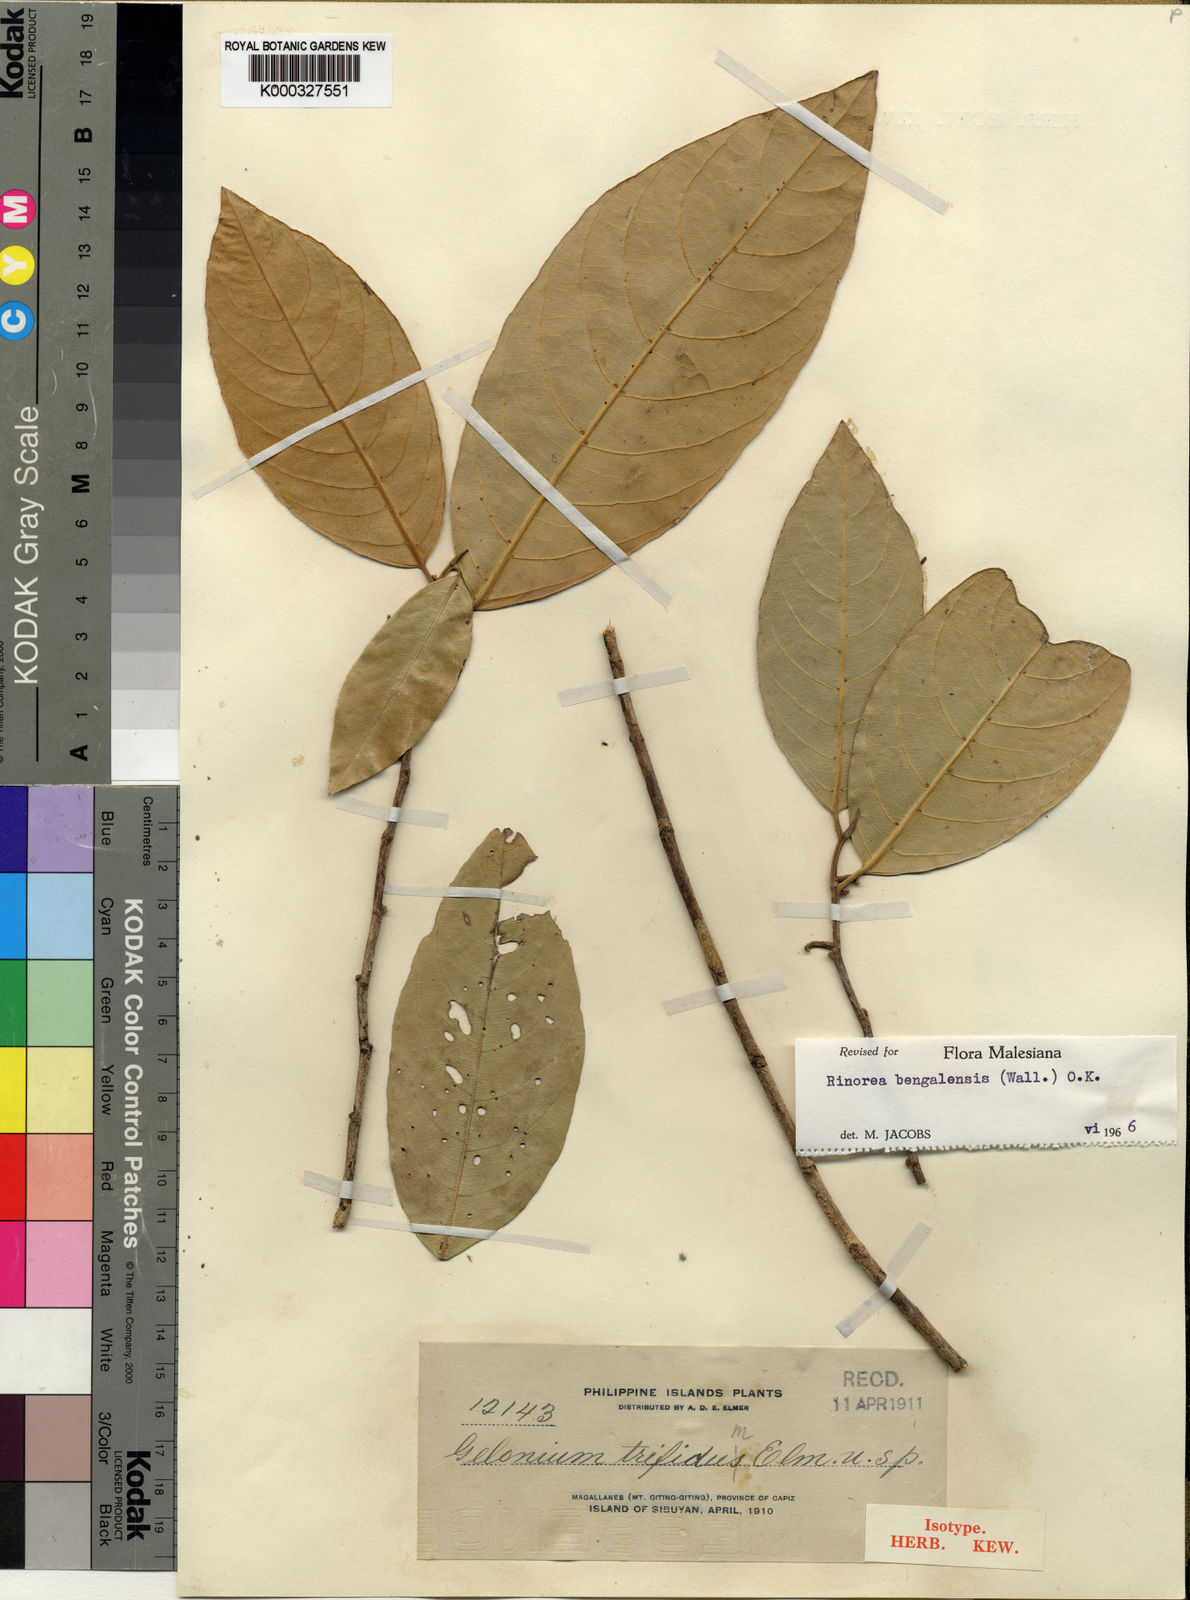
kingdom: Plantae
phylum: Tracheophyta
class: Magnoliopsida
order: Malpighiales
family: Violaceae
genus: Rinorea
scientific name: Rinorea bengalensis
